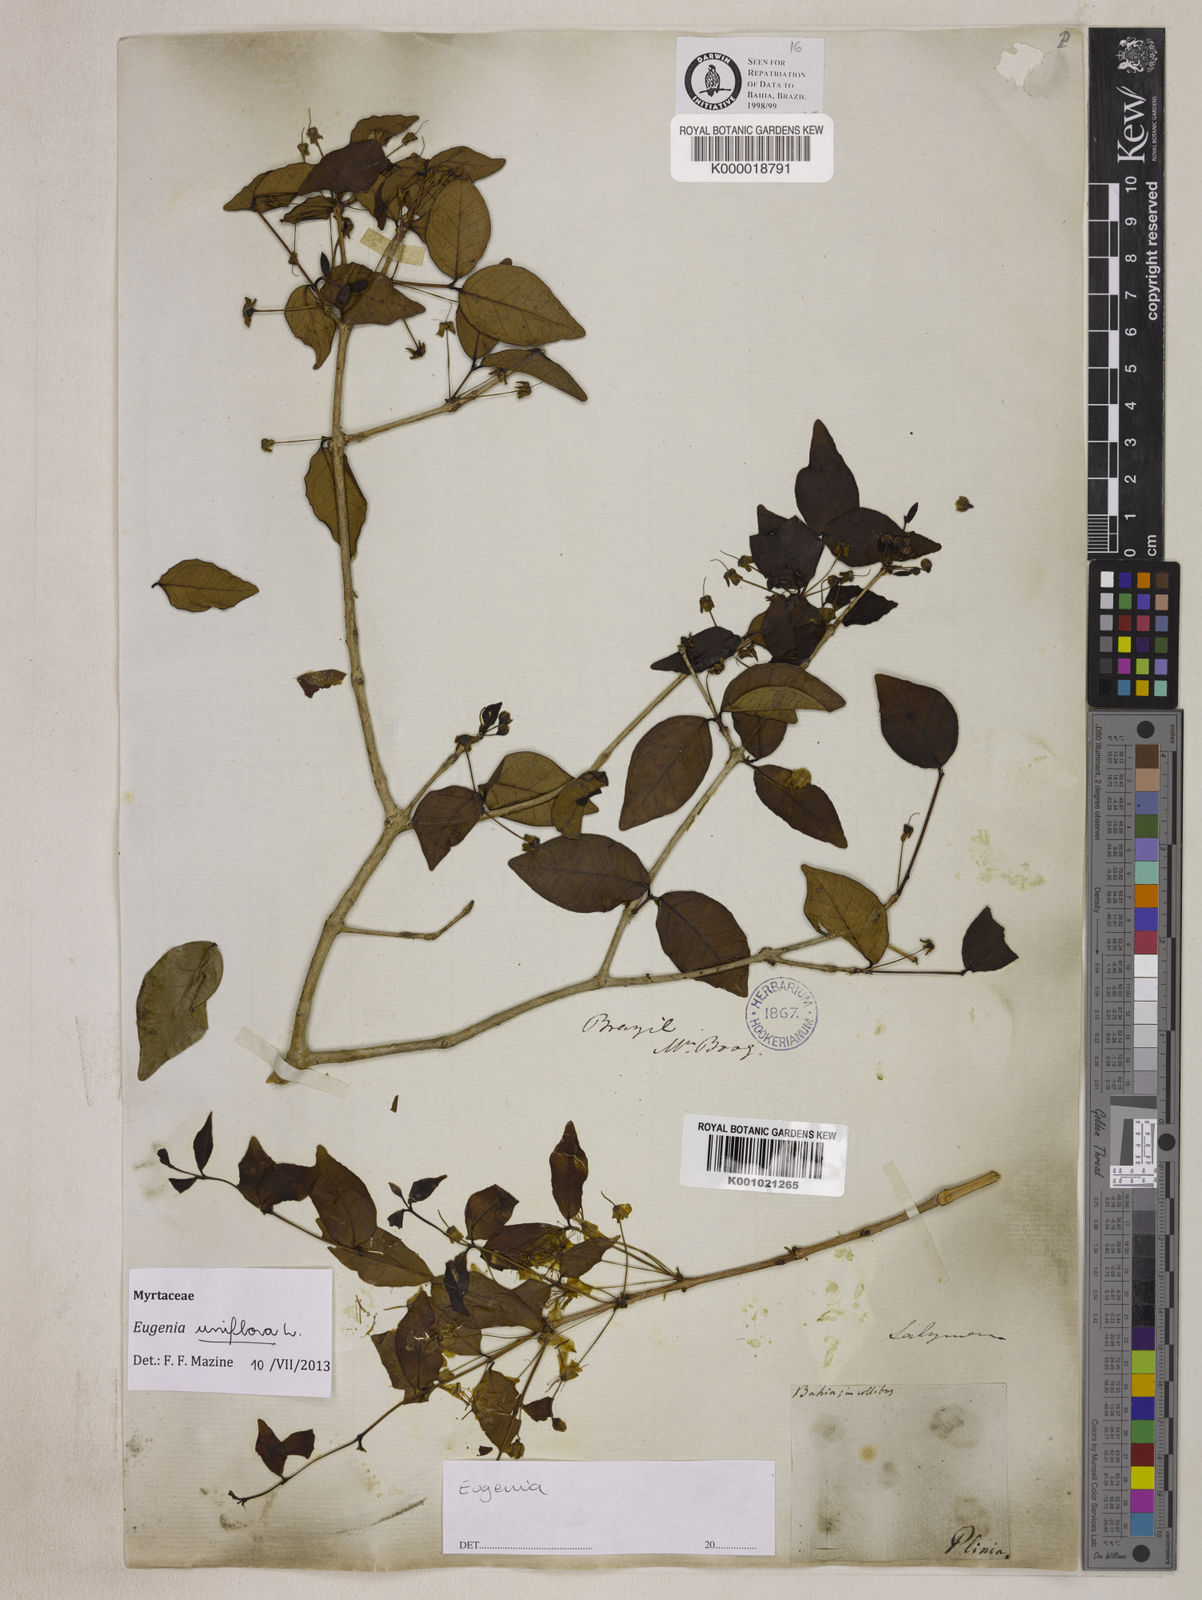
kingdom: Plantae
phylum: Tracheophyta
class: Magnoliopsida
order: Myrtales
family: Myrtaceae
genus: Eugenia
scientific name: Eugenia uniflora
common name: Surinam cherry
